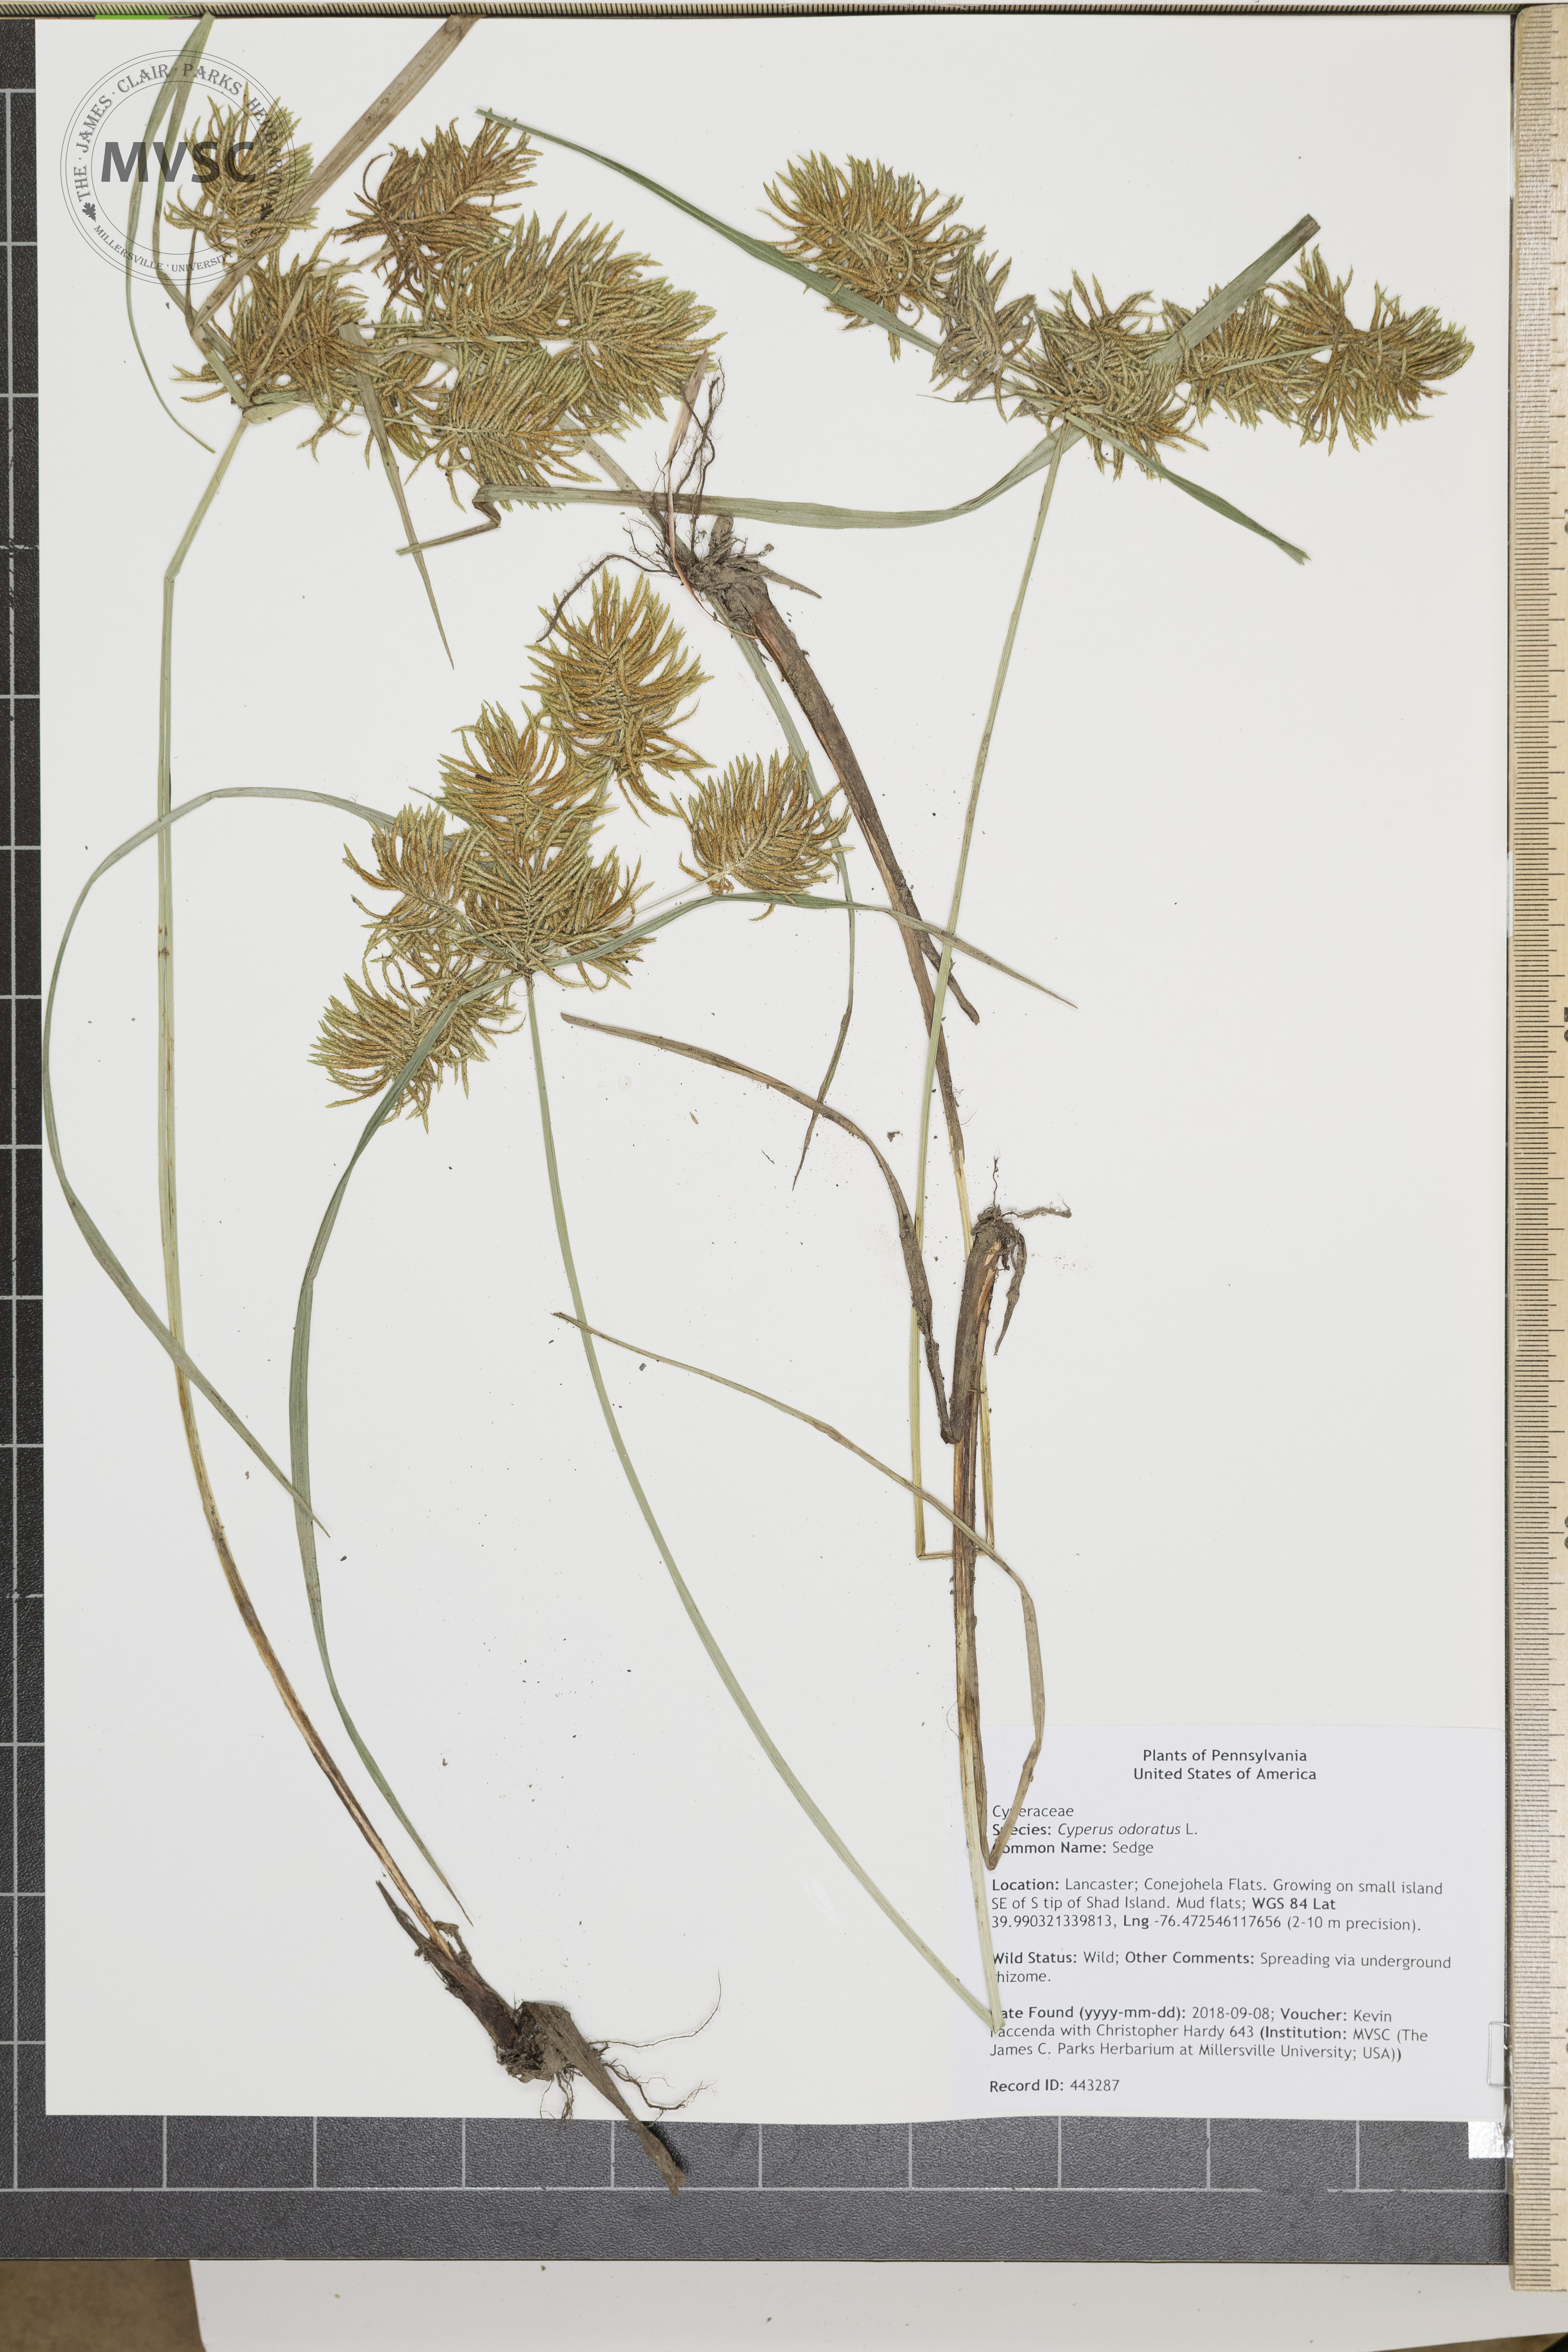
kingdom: Plantae
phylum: Tracheophyta
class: Liliopsida
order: Poales
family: Cyperaceae
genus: Cyperus
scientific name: Cyperus odoratus
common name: Sedge
